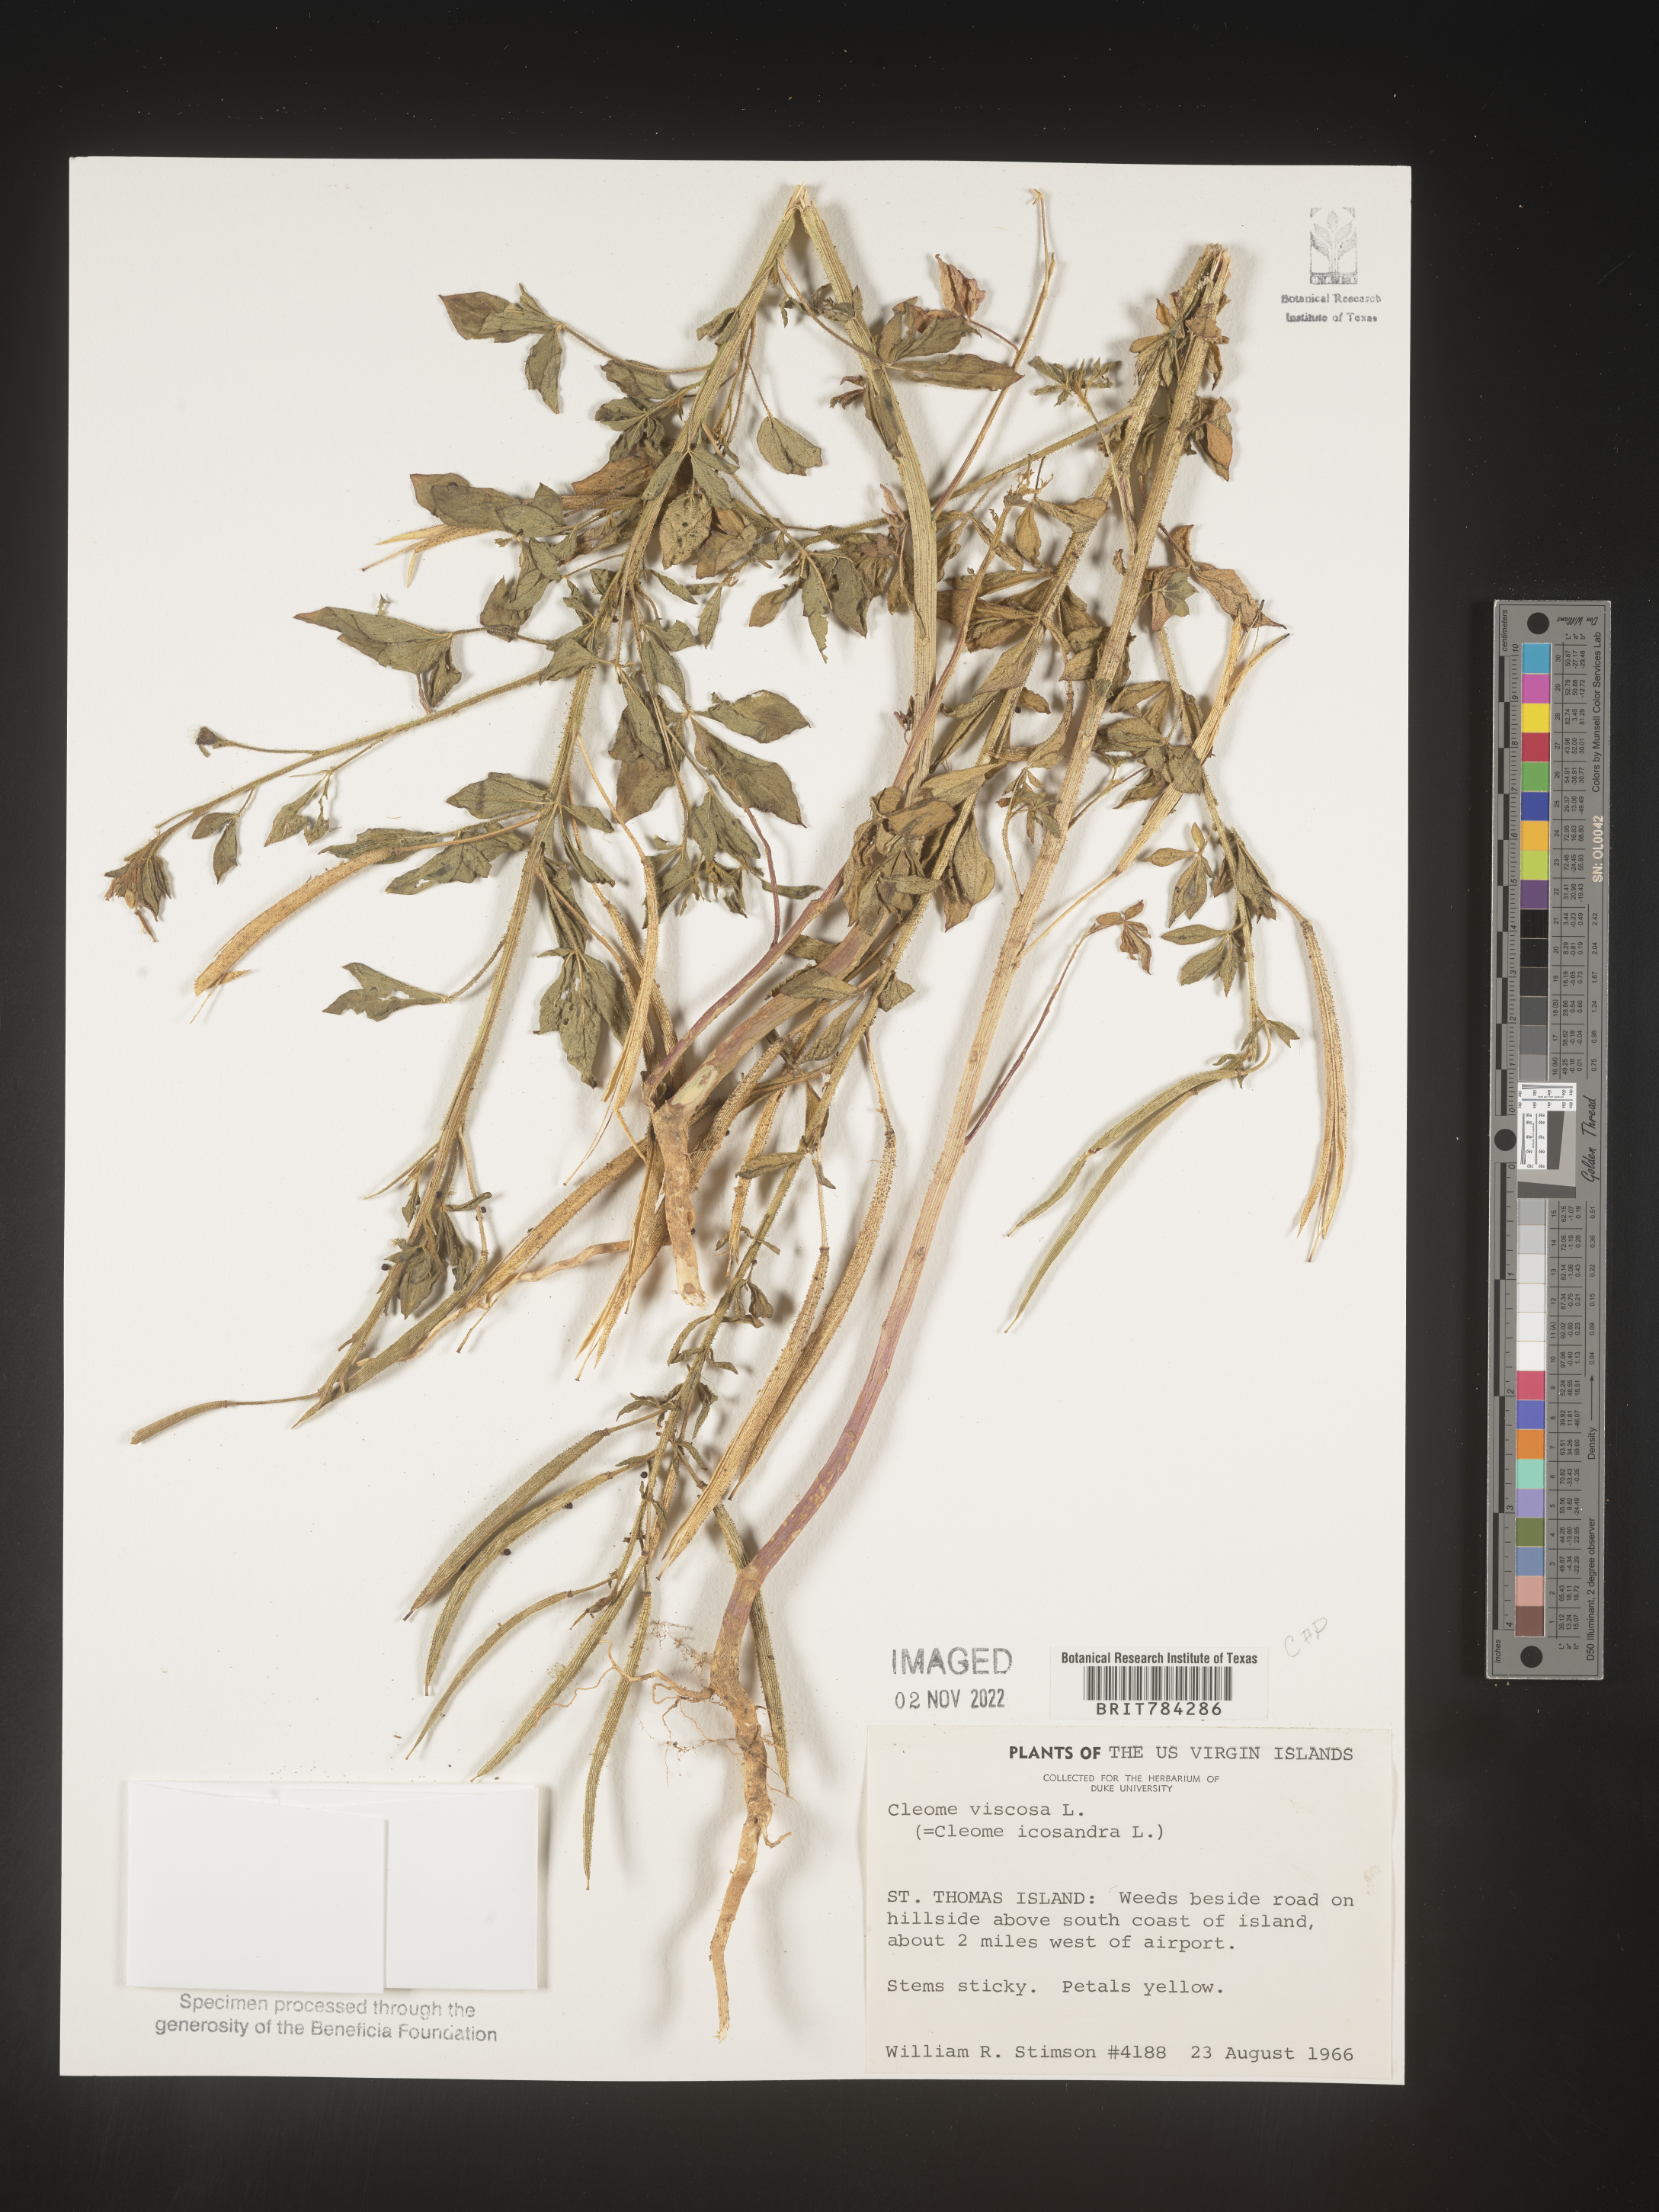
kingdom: Plantae
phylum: Tracheophyta
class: Magnoliopsida
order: Brassicales
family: Cleomaceae
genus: Cleome
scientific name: Cleome
